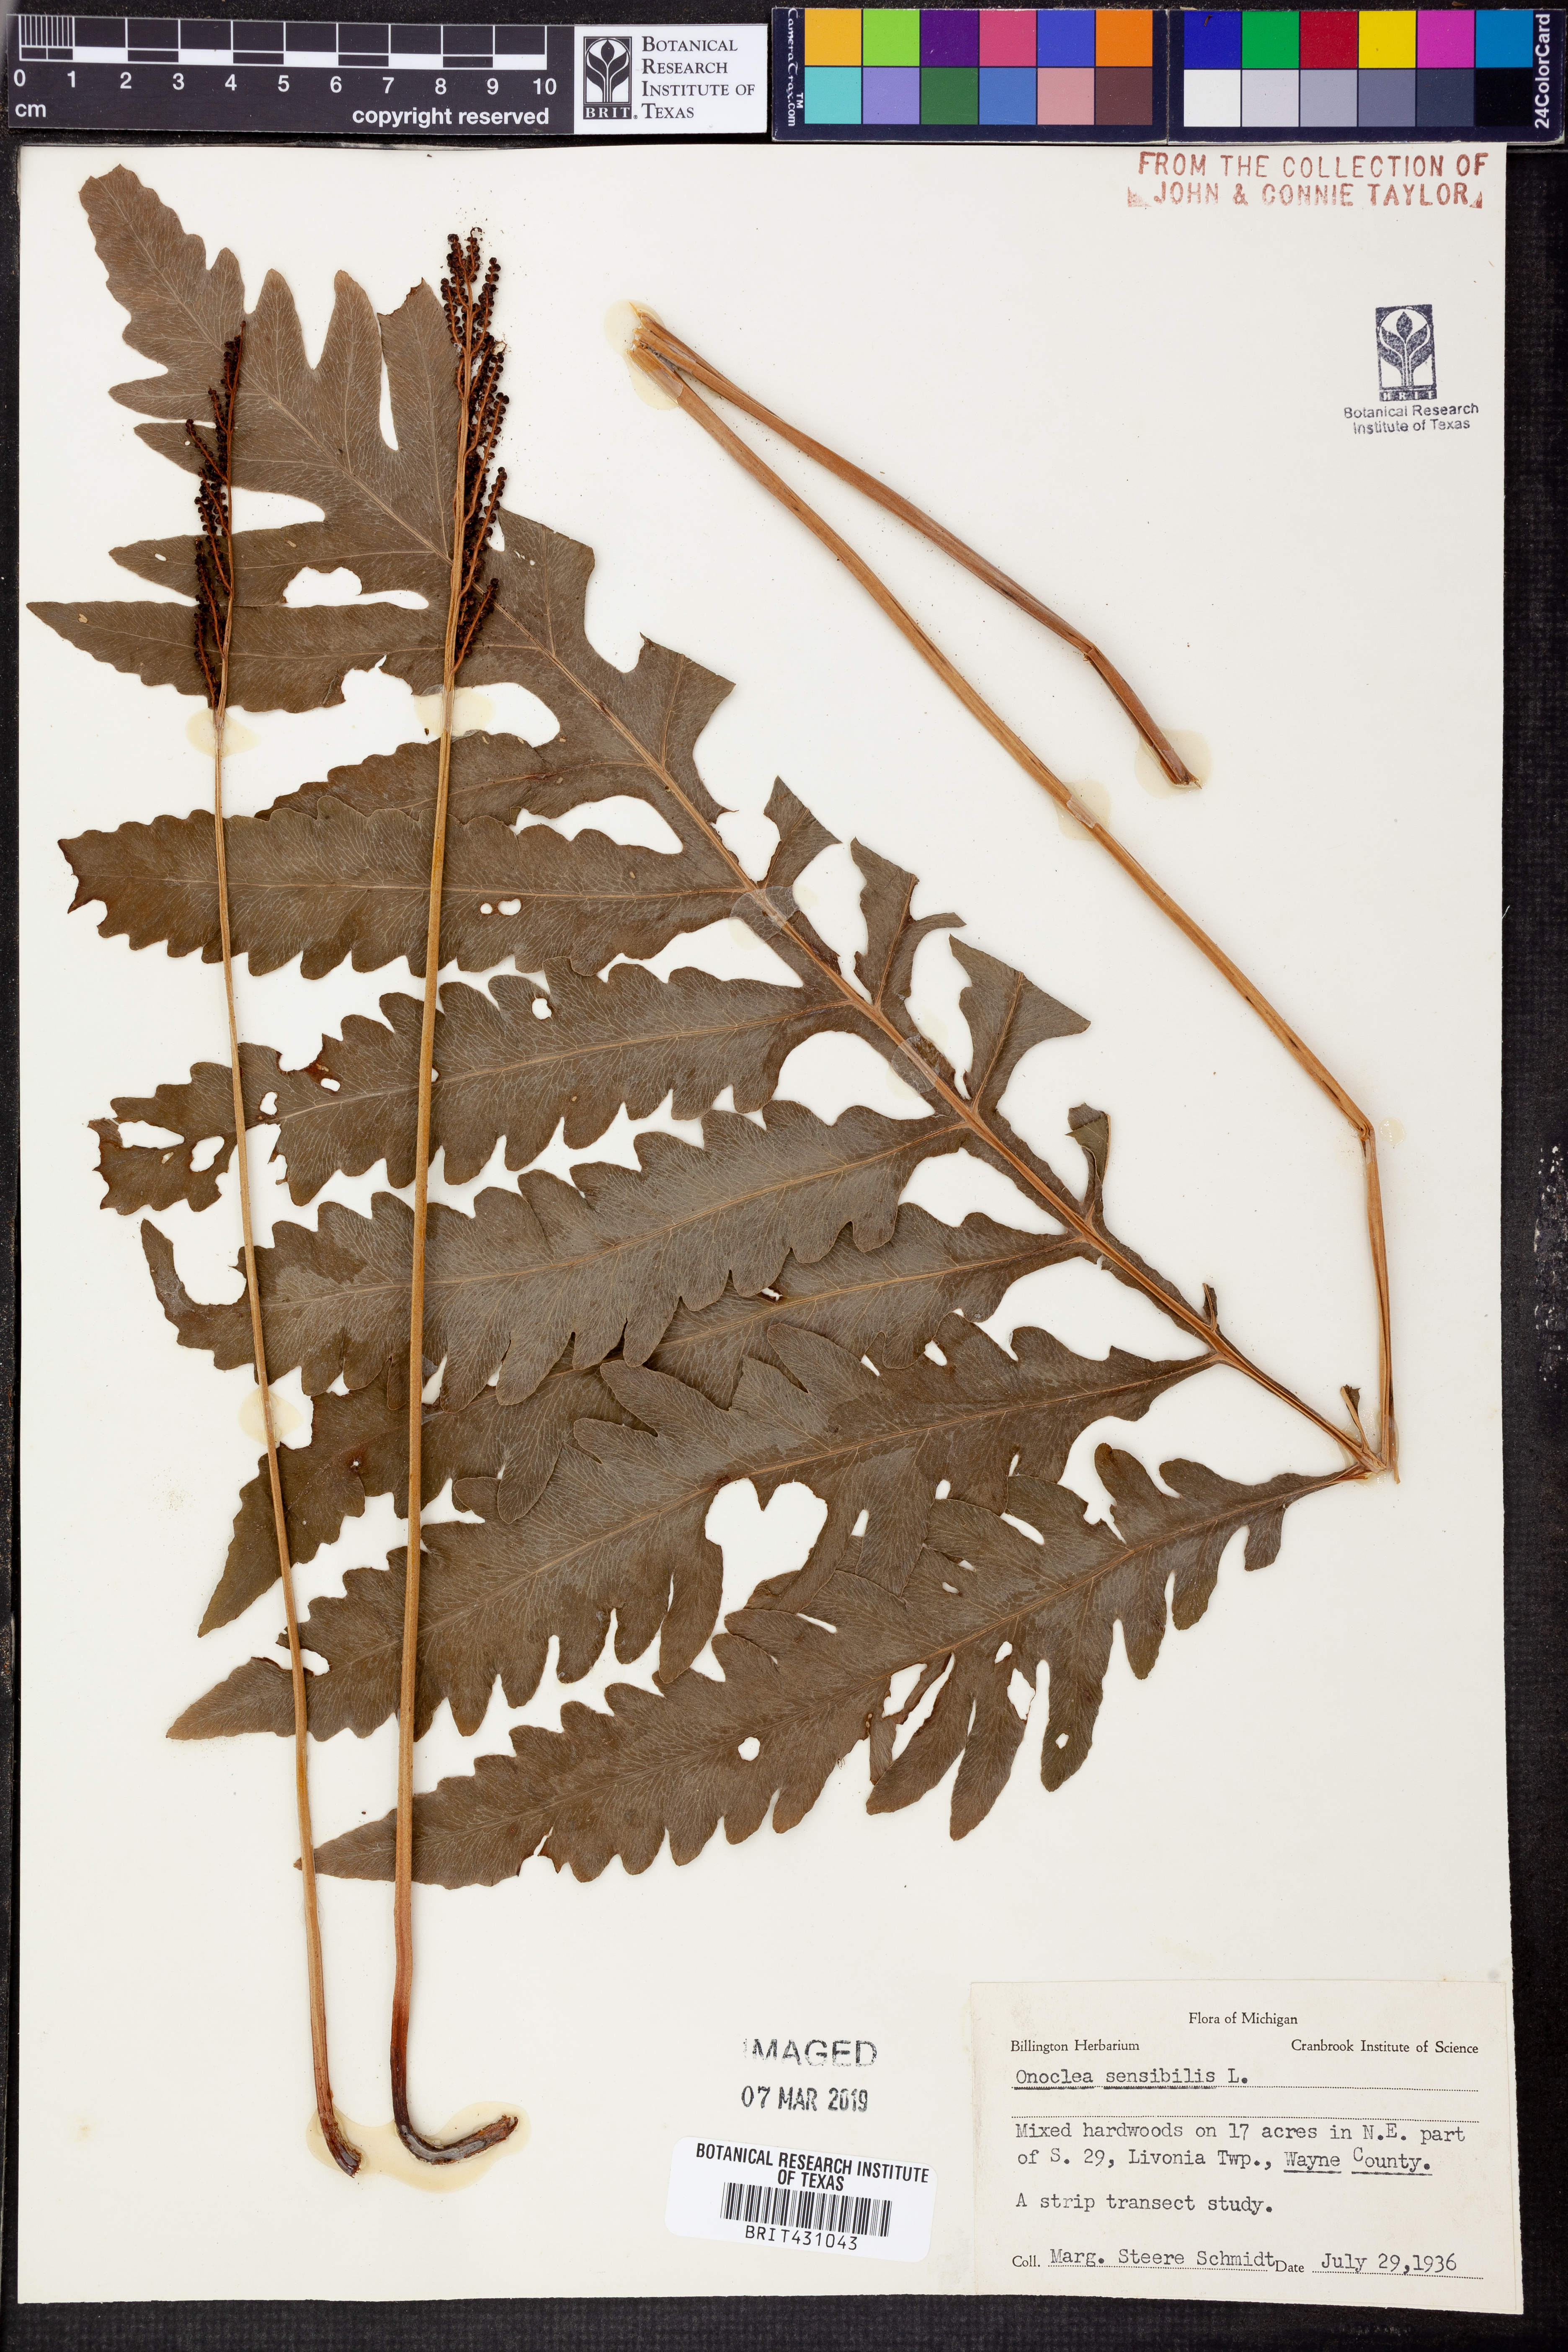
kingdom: Plantae
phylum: Tracheophyta
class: Polypodiopsida
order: Polypodiales
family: Onocleaceae
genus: Onoclea
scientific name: Onoclea sensibilis
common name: Sensitive fern
